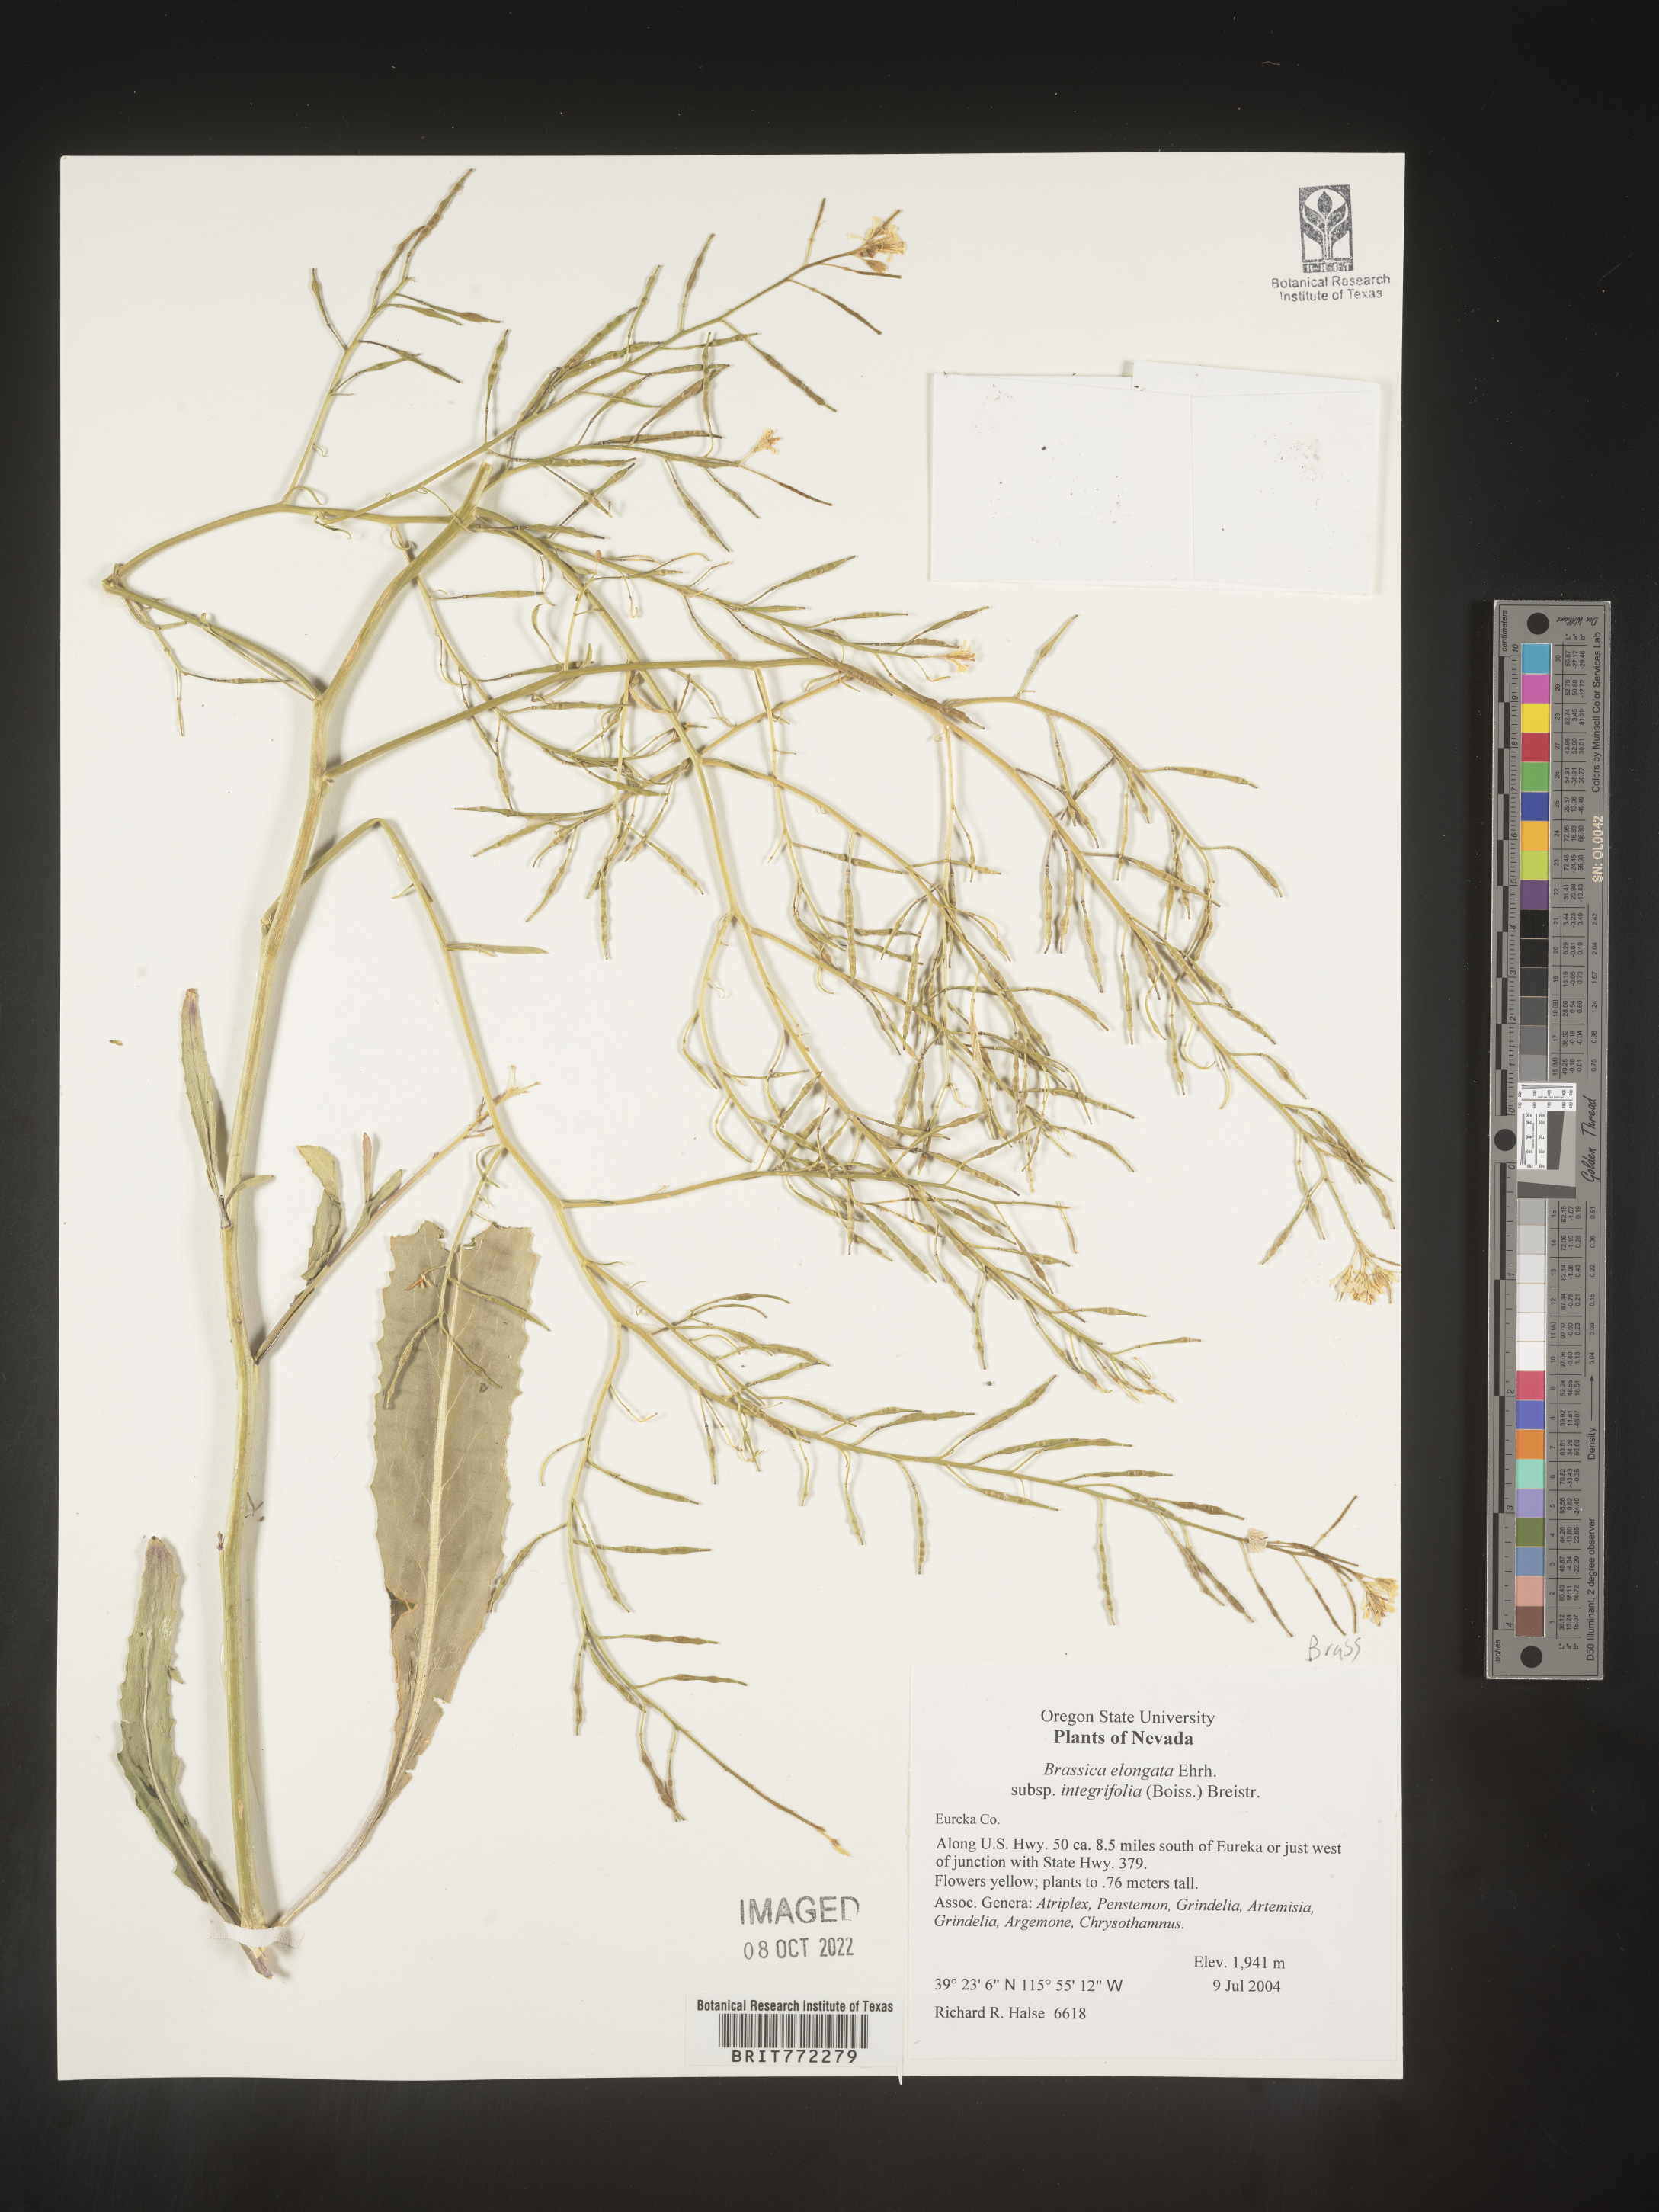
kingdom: Plantae
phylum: Tracheophyta
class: Magnoliopsida
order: Brassicales
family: Brassicaceae
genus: Brassica
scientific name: Brassica
